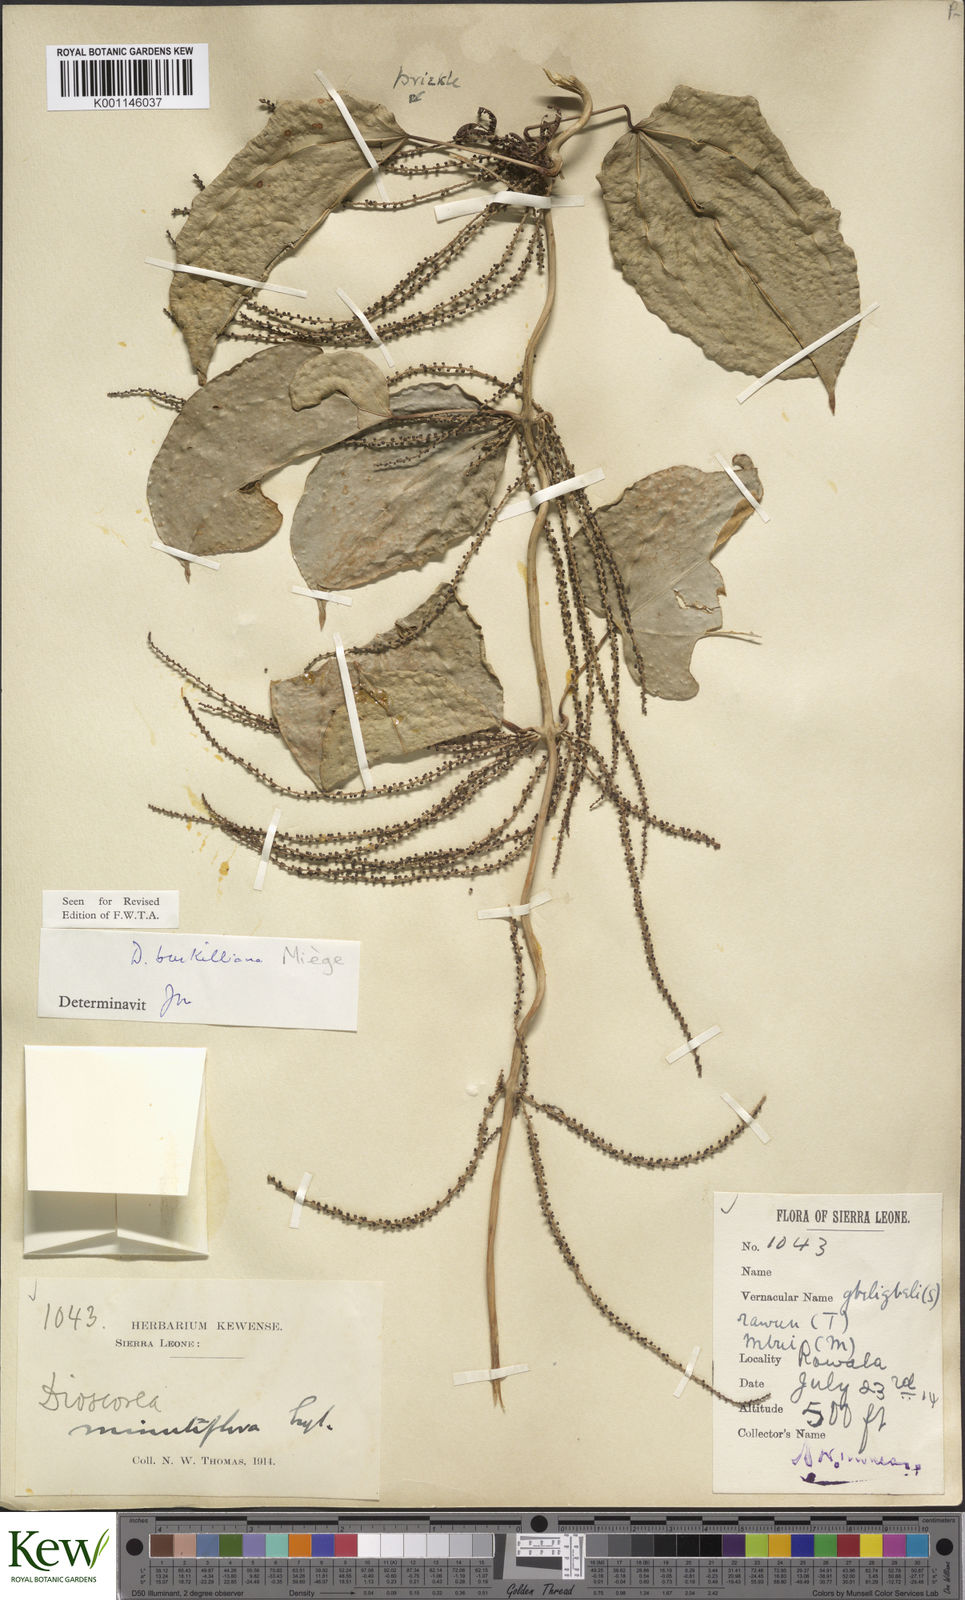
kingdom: Plantae
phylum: Tracheophyta
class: Liliopsida
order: Dioscoreales
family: Dioscoreaceae
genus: Dioscorea
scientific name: Dioscorea
